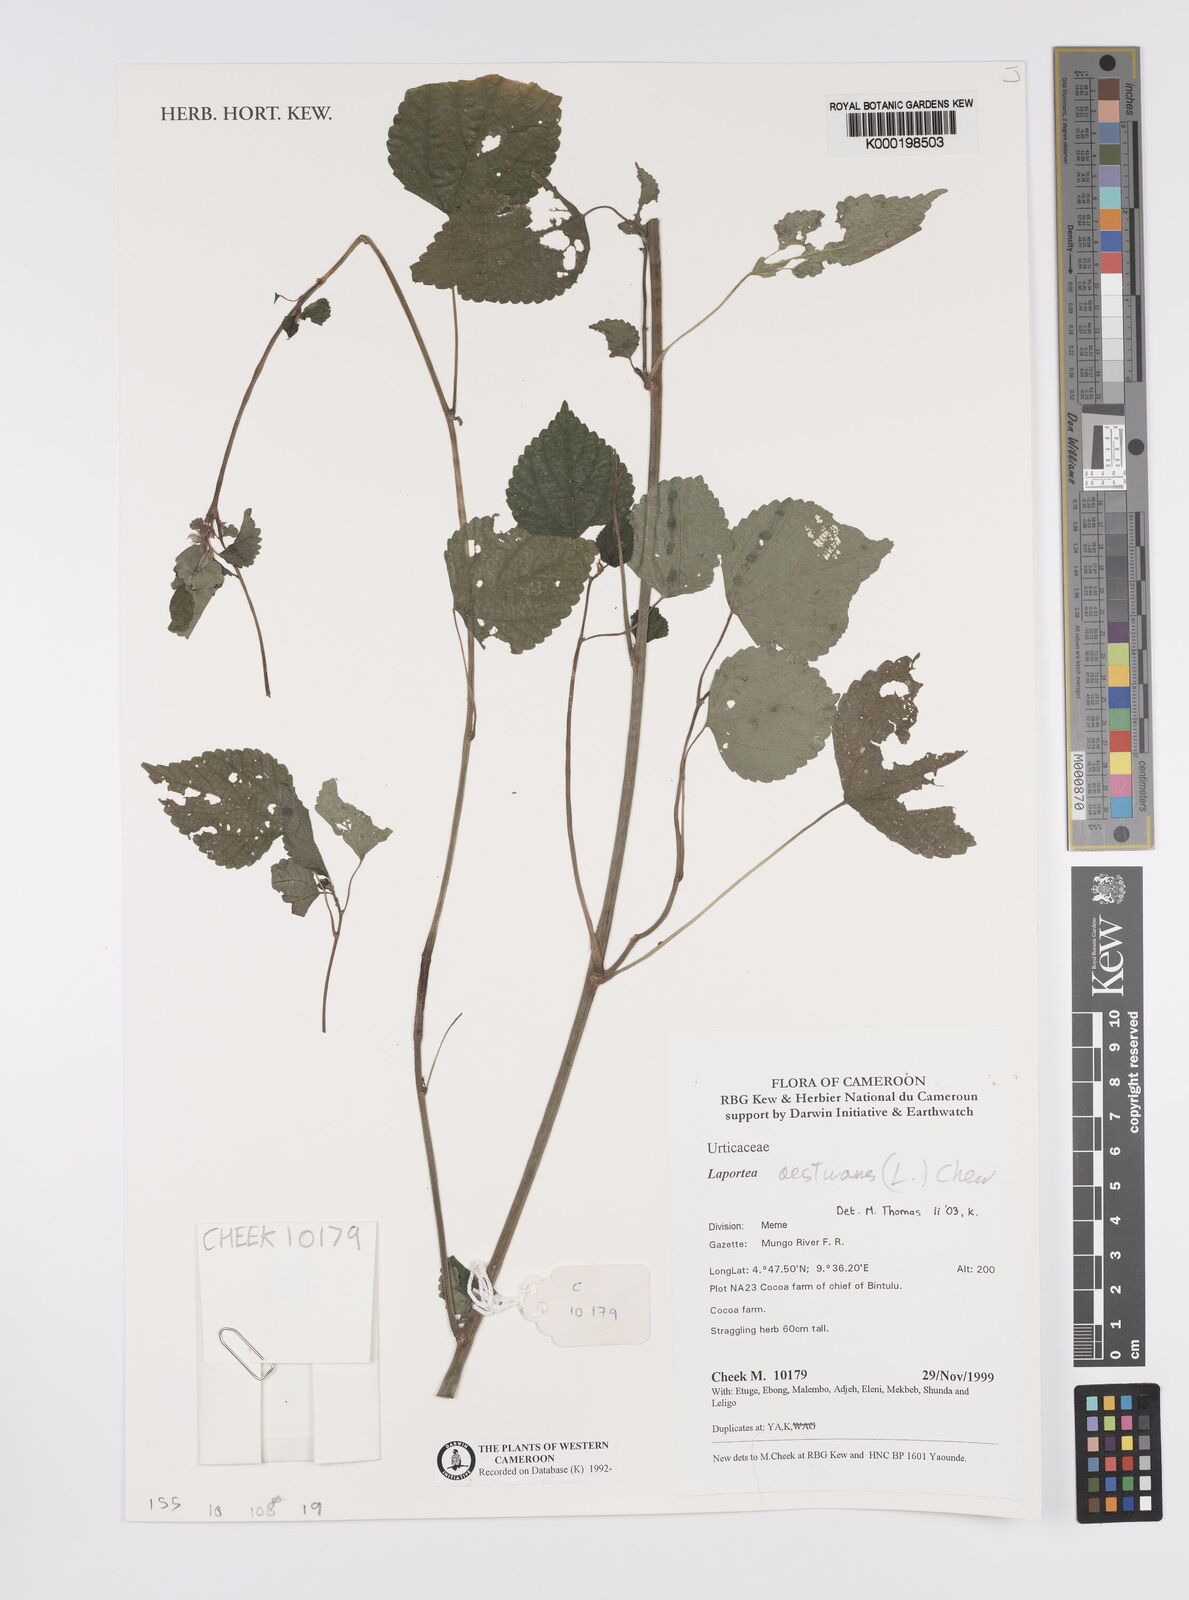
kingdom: Plantae
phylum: Tracheophyta
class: Magnoliopsida
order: Rosales
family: Urticaceae
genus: Laportea
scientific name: Laportea aestuans
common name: West indian woodnettle
